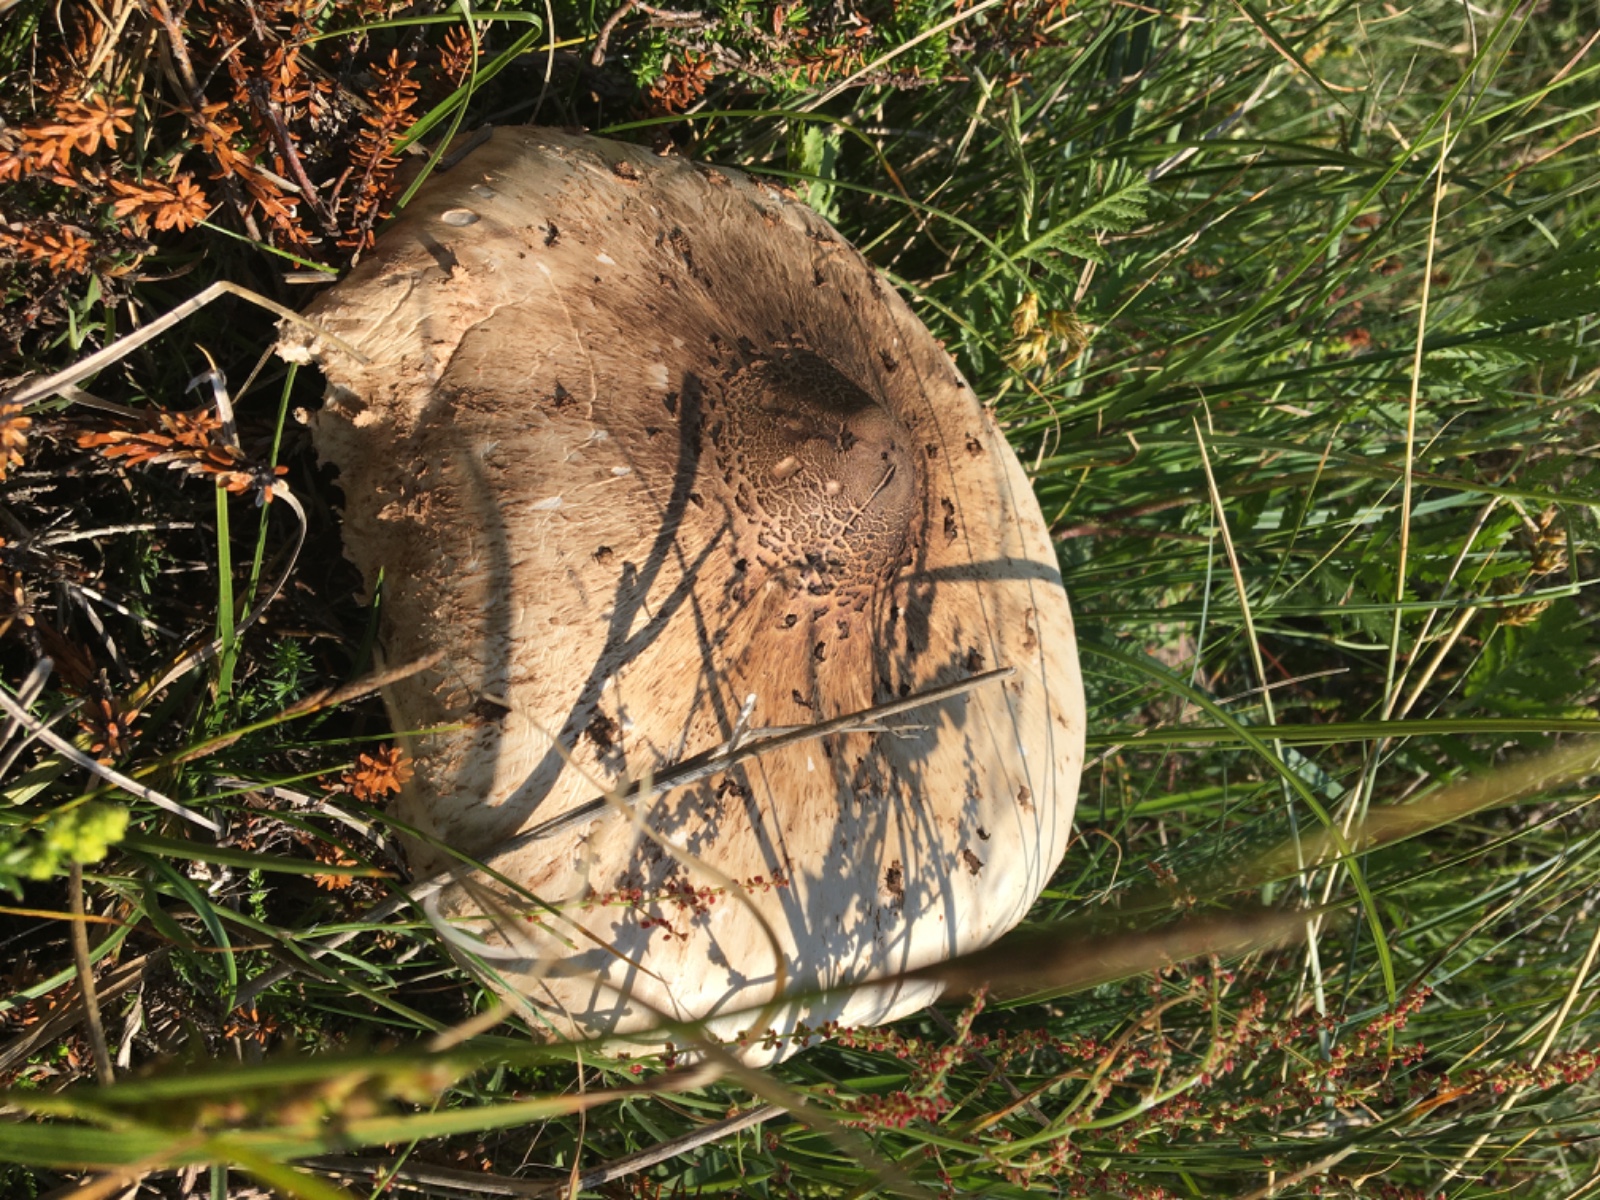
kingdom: Fungi
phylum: Basidiomycota
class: Agaricomycetes
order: Agaricales
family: Agaricaceae
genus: Macrolepiota
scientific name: Macrolepiota procera
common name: stor kæmpeparasolhat
